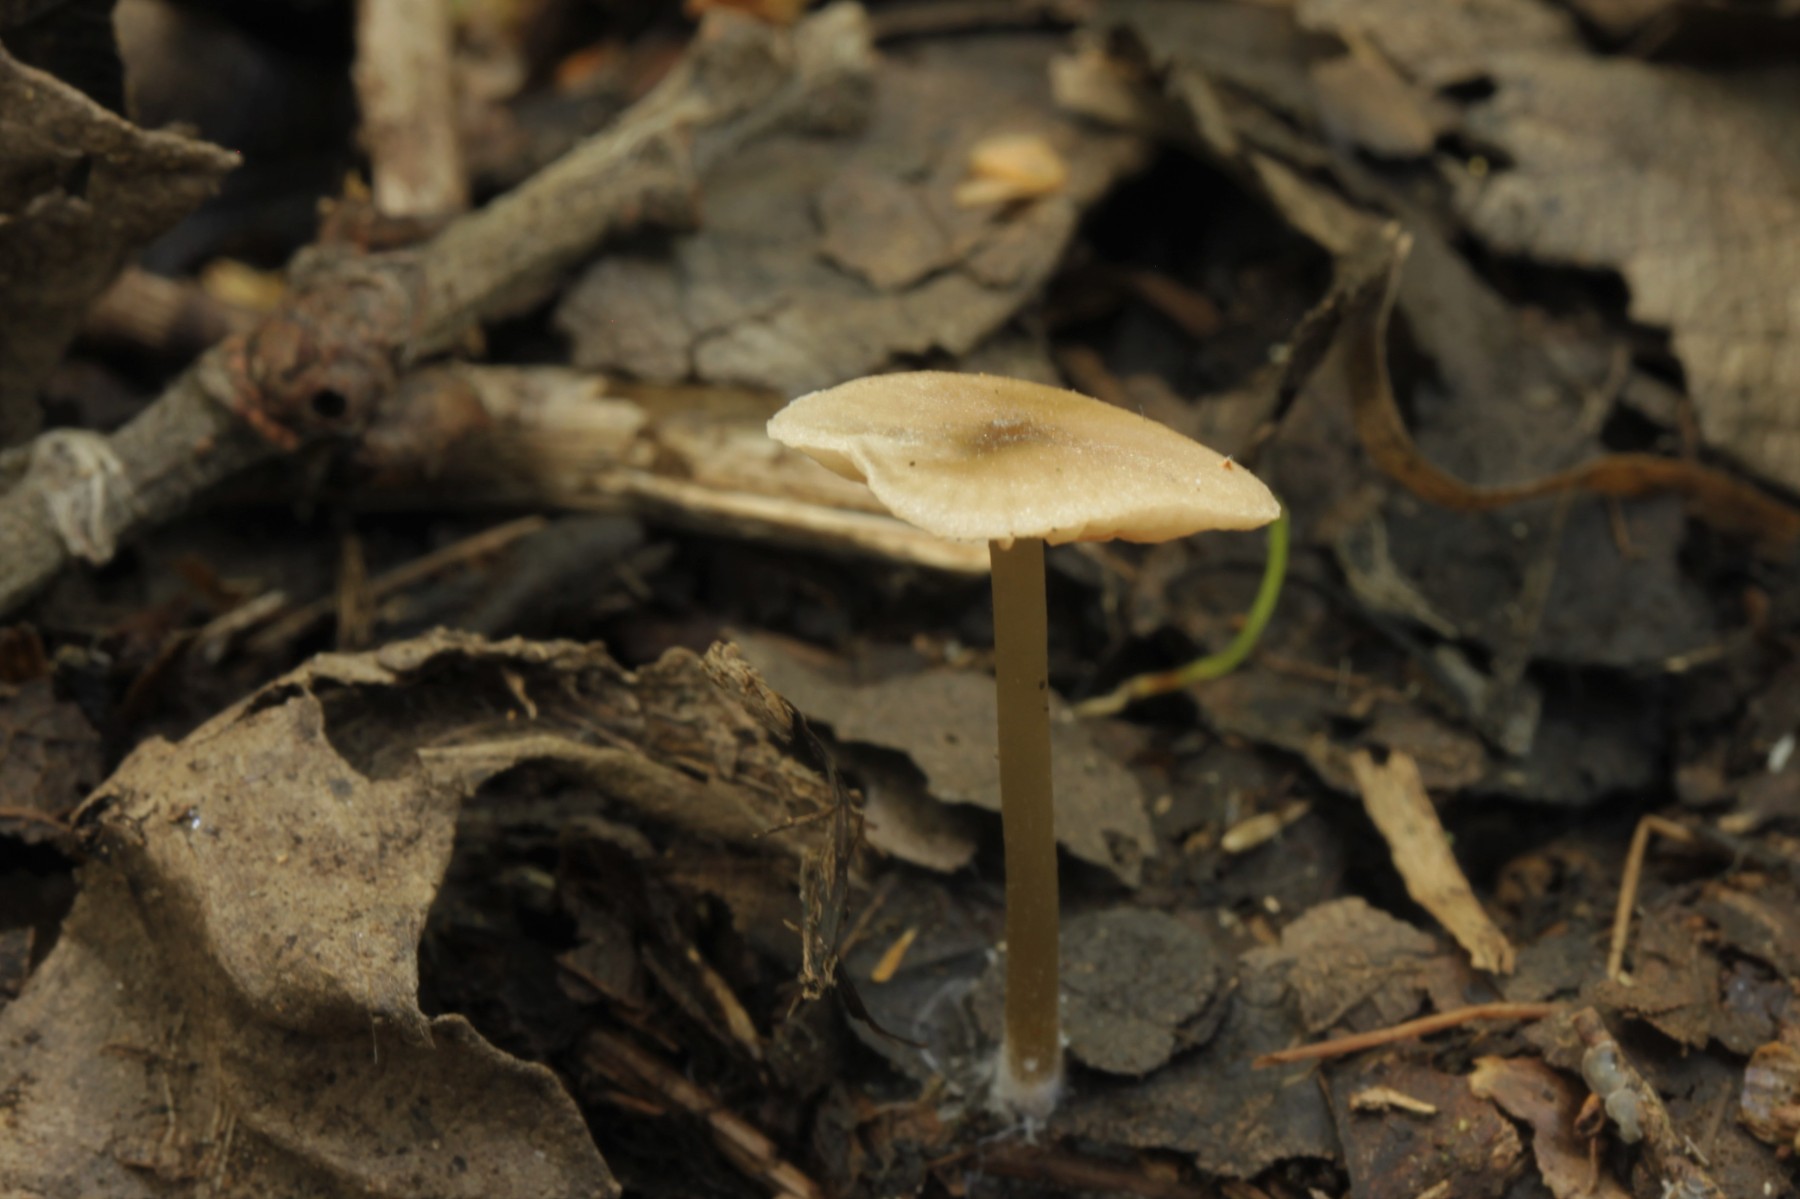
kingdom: Fungi
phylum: Basidiomycota
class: Agaricomycetes
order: Agaricales
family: Entolomataceae
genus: Entoloma
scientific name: Entoloma incognitum
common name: sommer-rødblad
